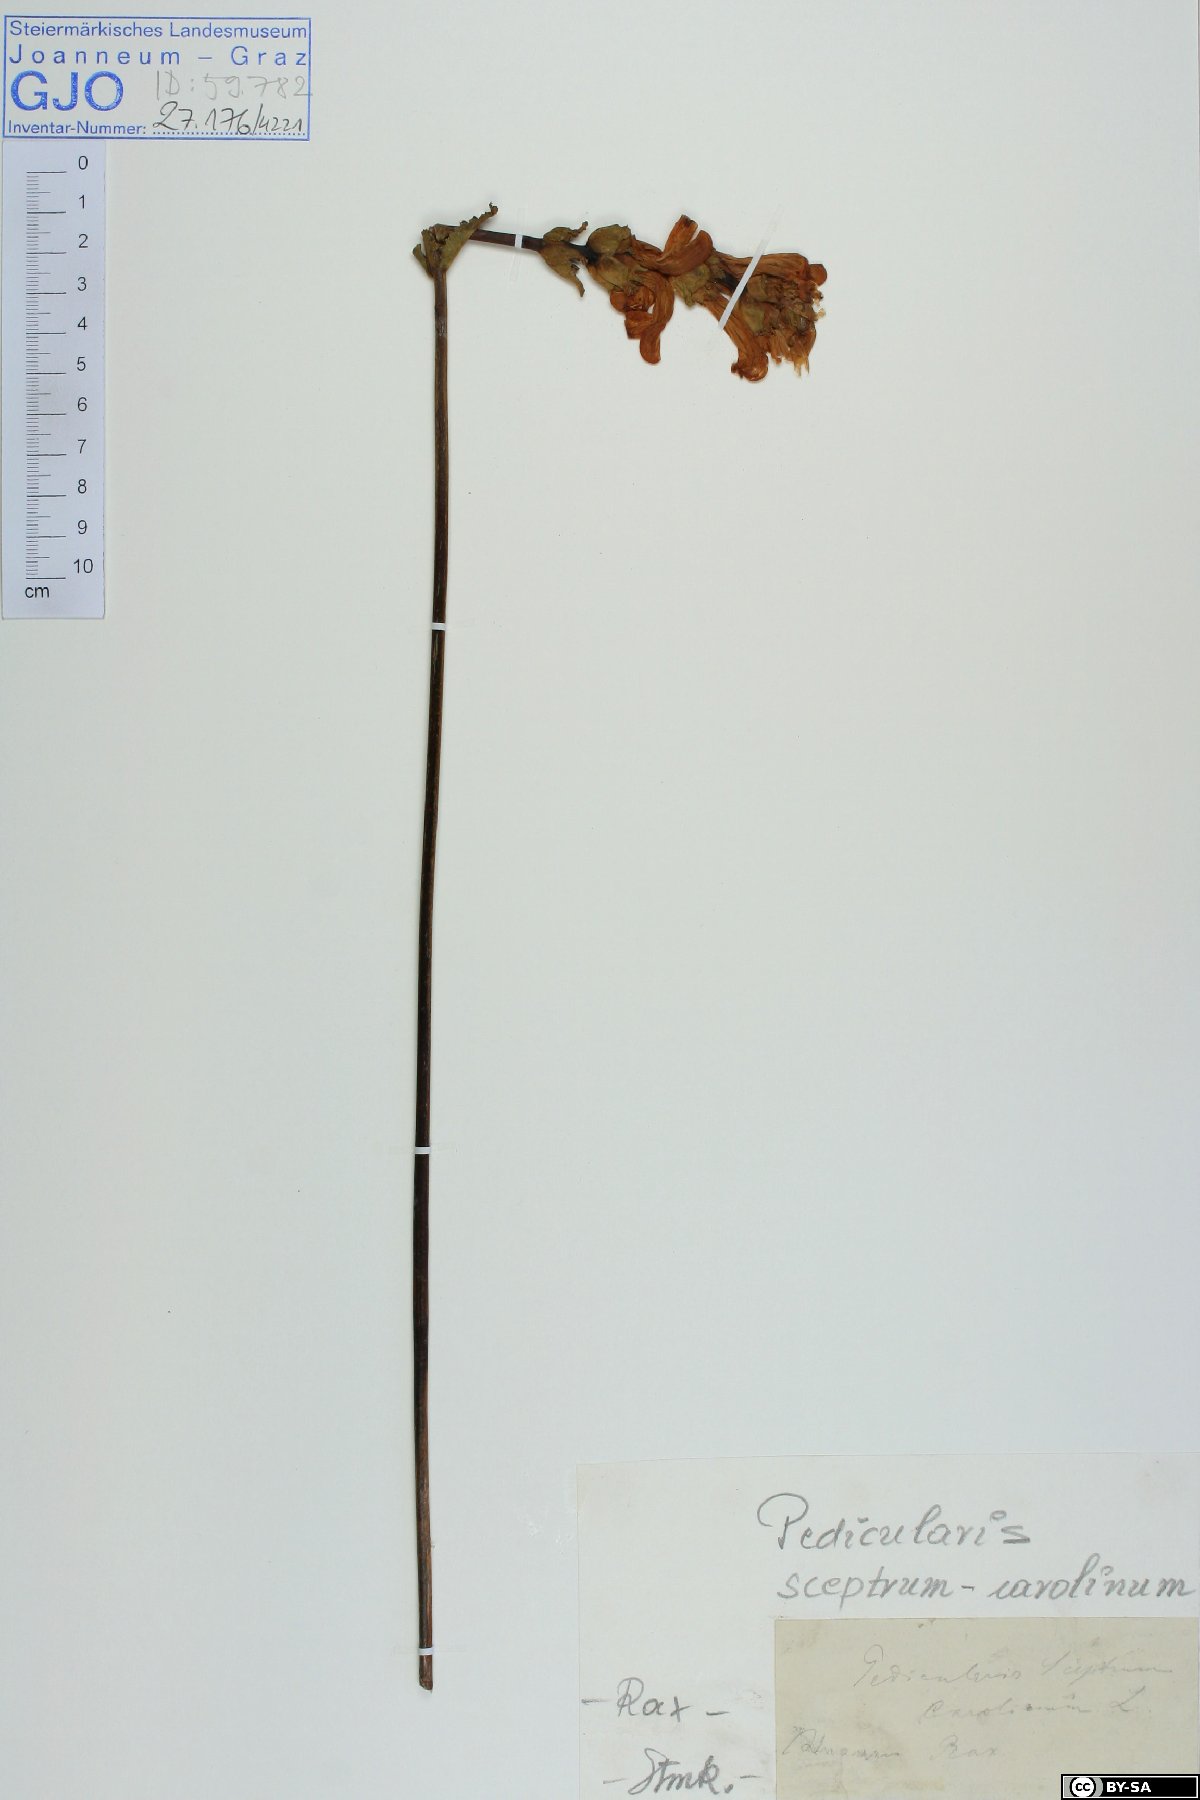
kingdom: Plantae
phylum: Tracheophyta
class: Magnoliopsida
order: Lamiales
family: Orobanchaceae
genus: Pedicularis
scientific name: Pedicularis sceptrum-carolinum
